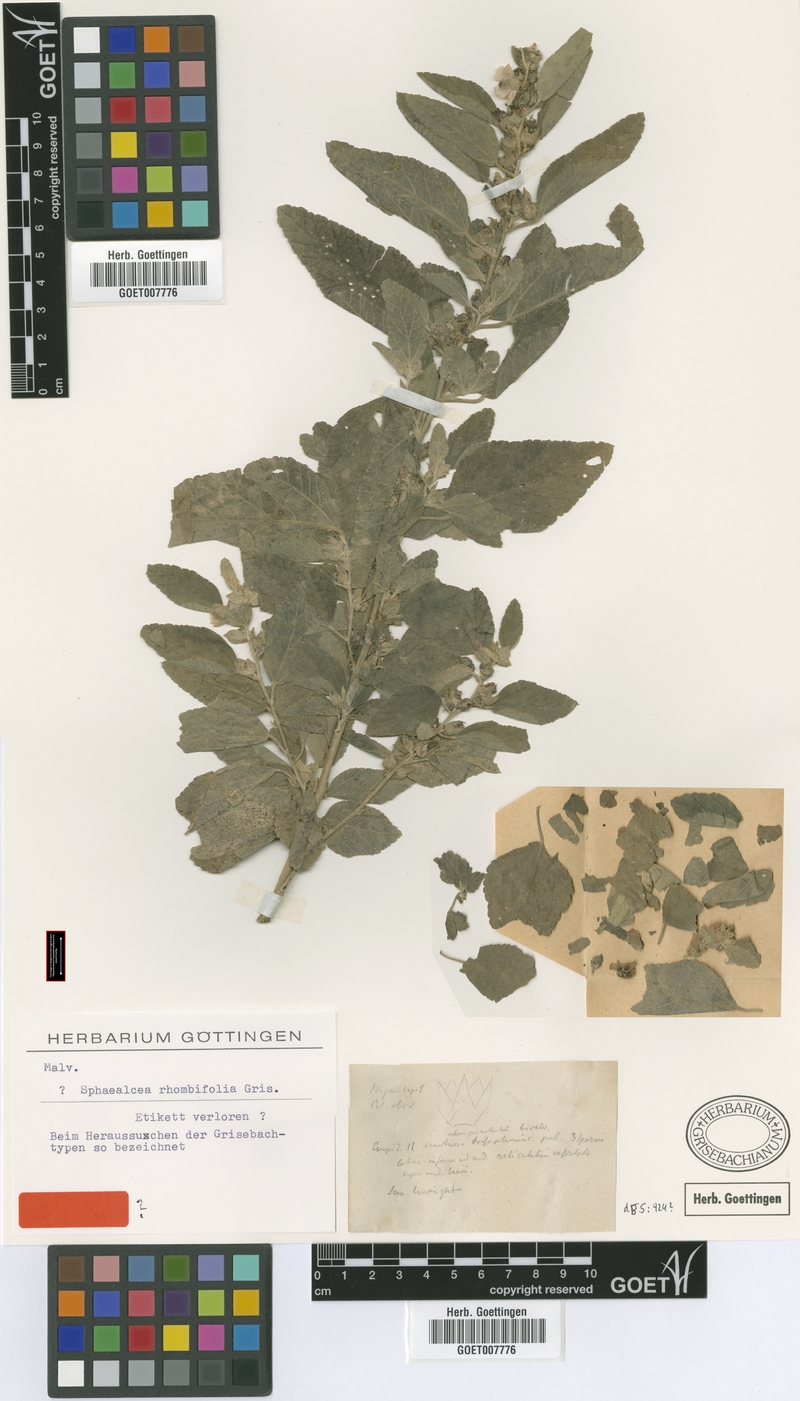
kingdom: Plantae
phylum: Tracheophyta
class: Magnoliopsida
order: Malvales
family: Malvaceae
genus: Sphaeralcea
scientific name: Sphaeralcea bonariensis
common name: Latin globemallow
